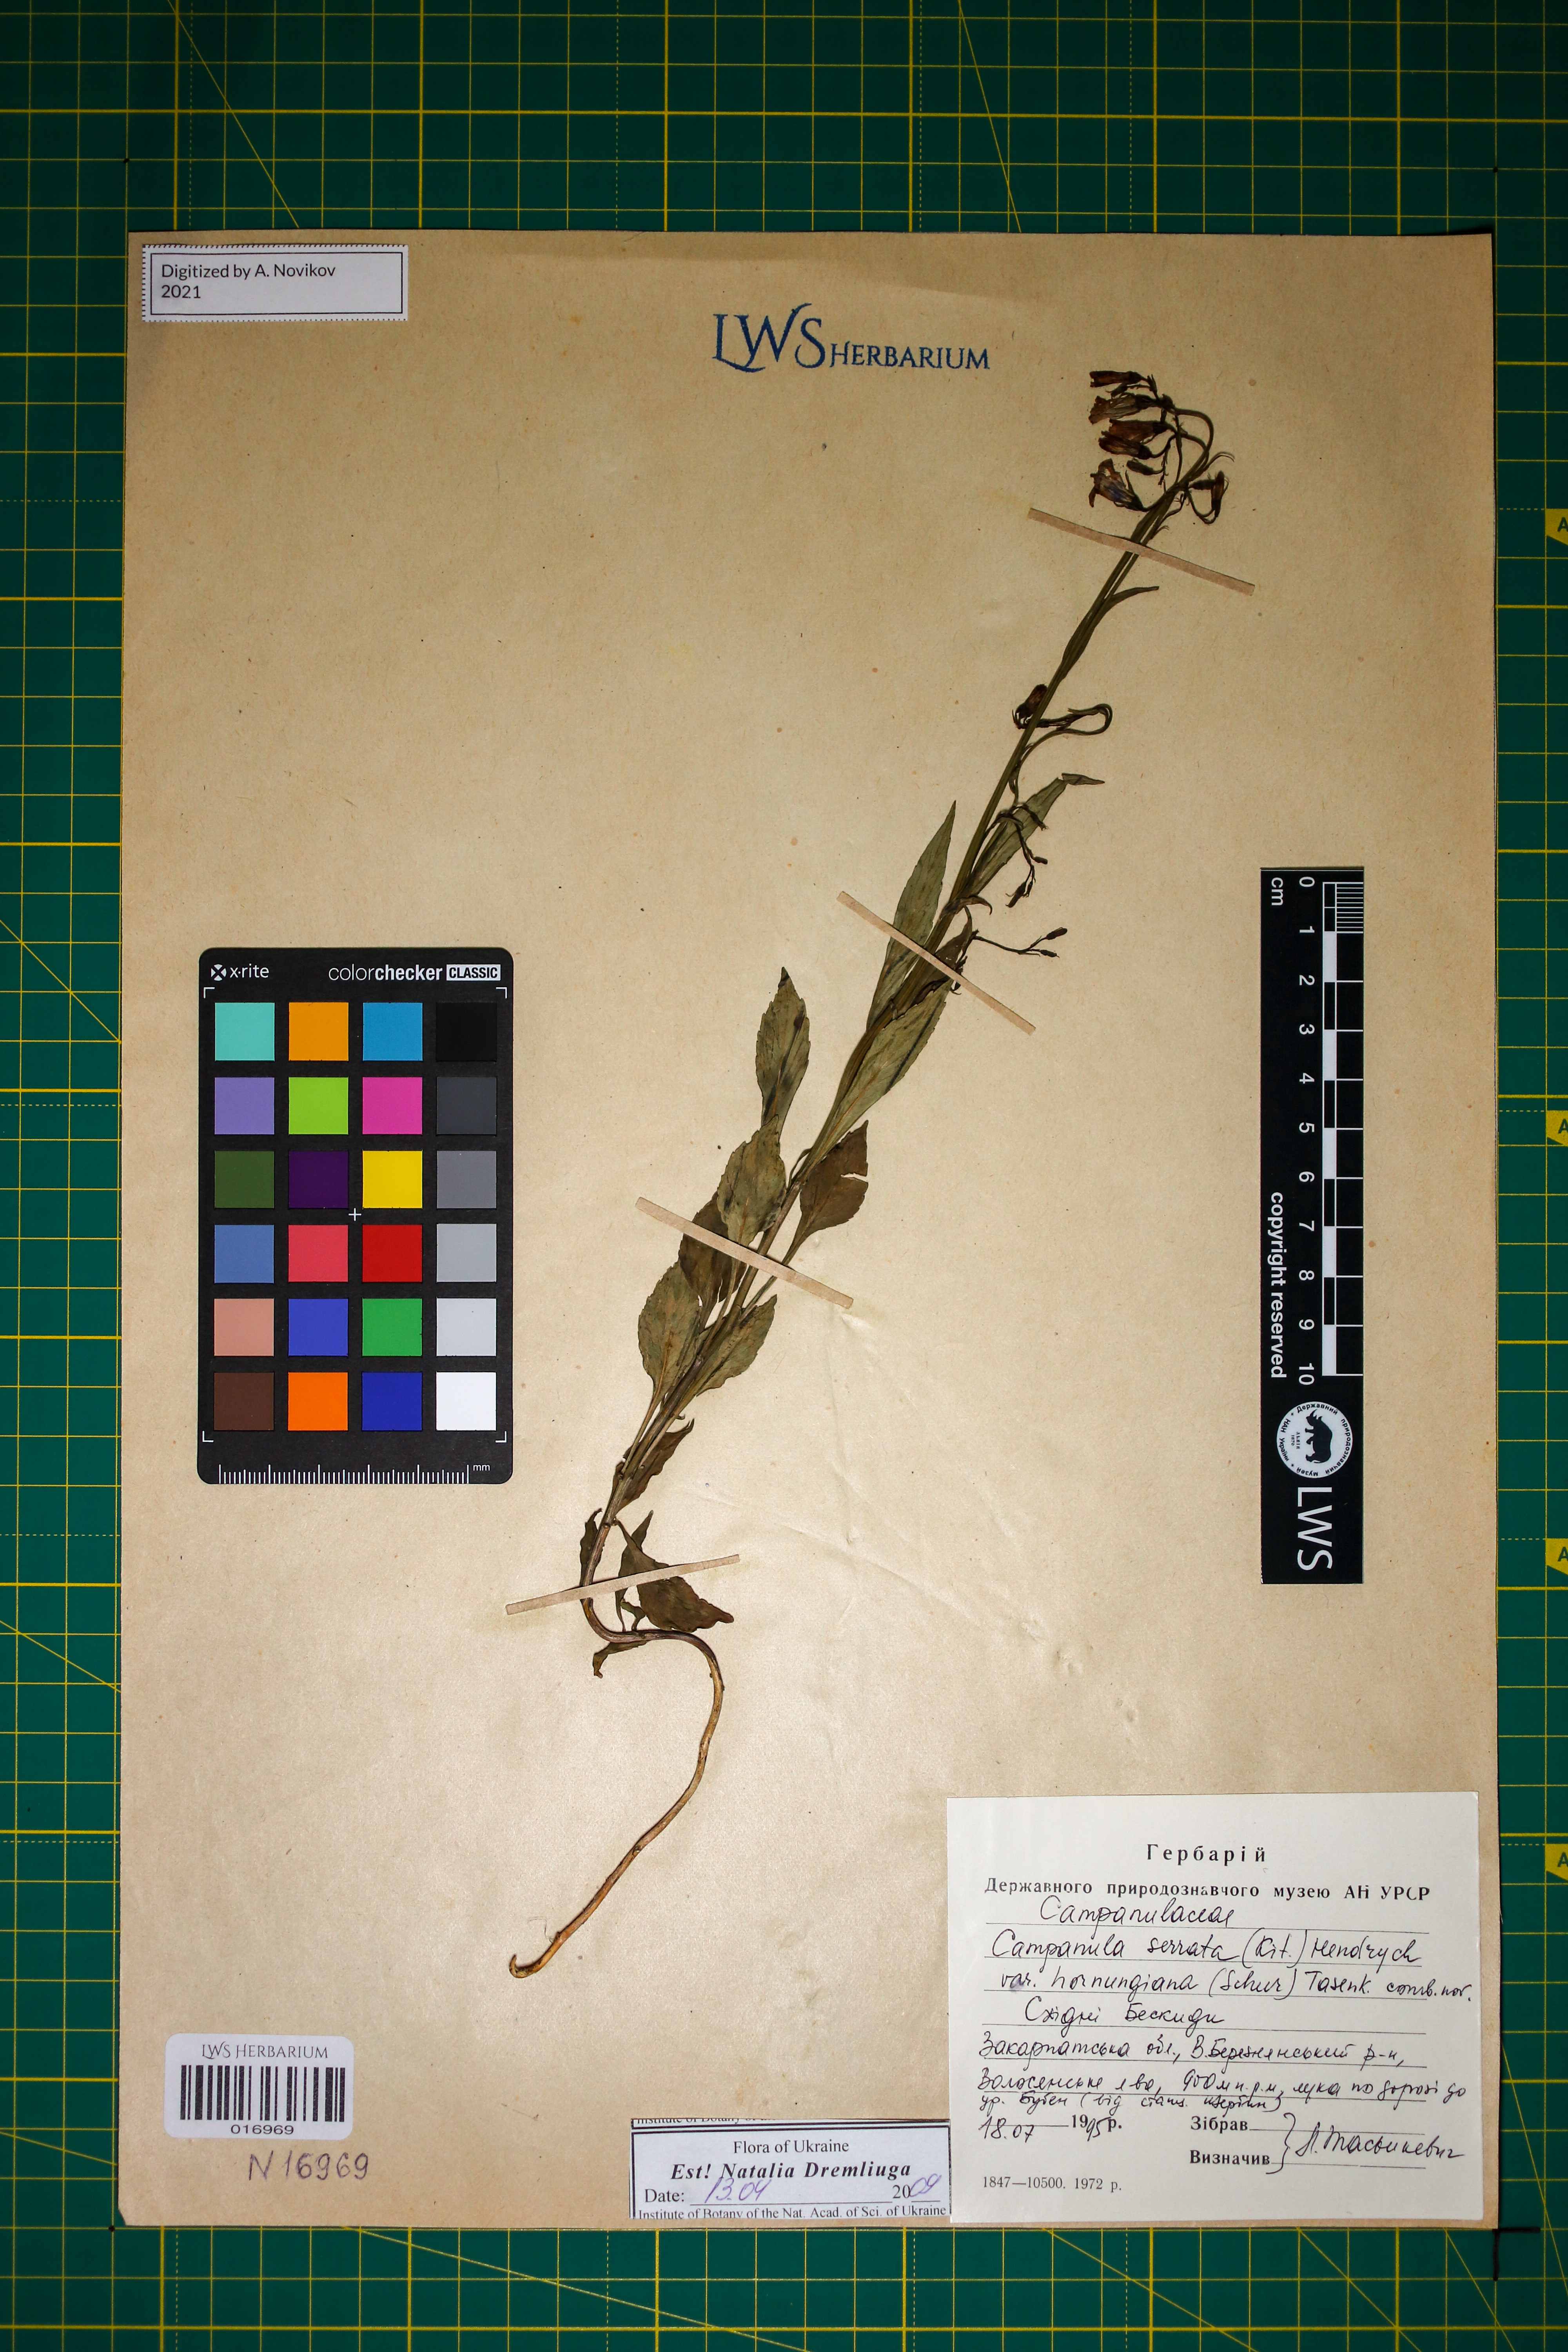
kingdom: Plantae
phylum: Tracheophyta
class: Magnoliopsida
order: Asterales
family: Campanulaceae
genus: Campanula
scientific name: Campanula serrata
